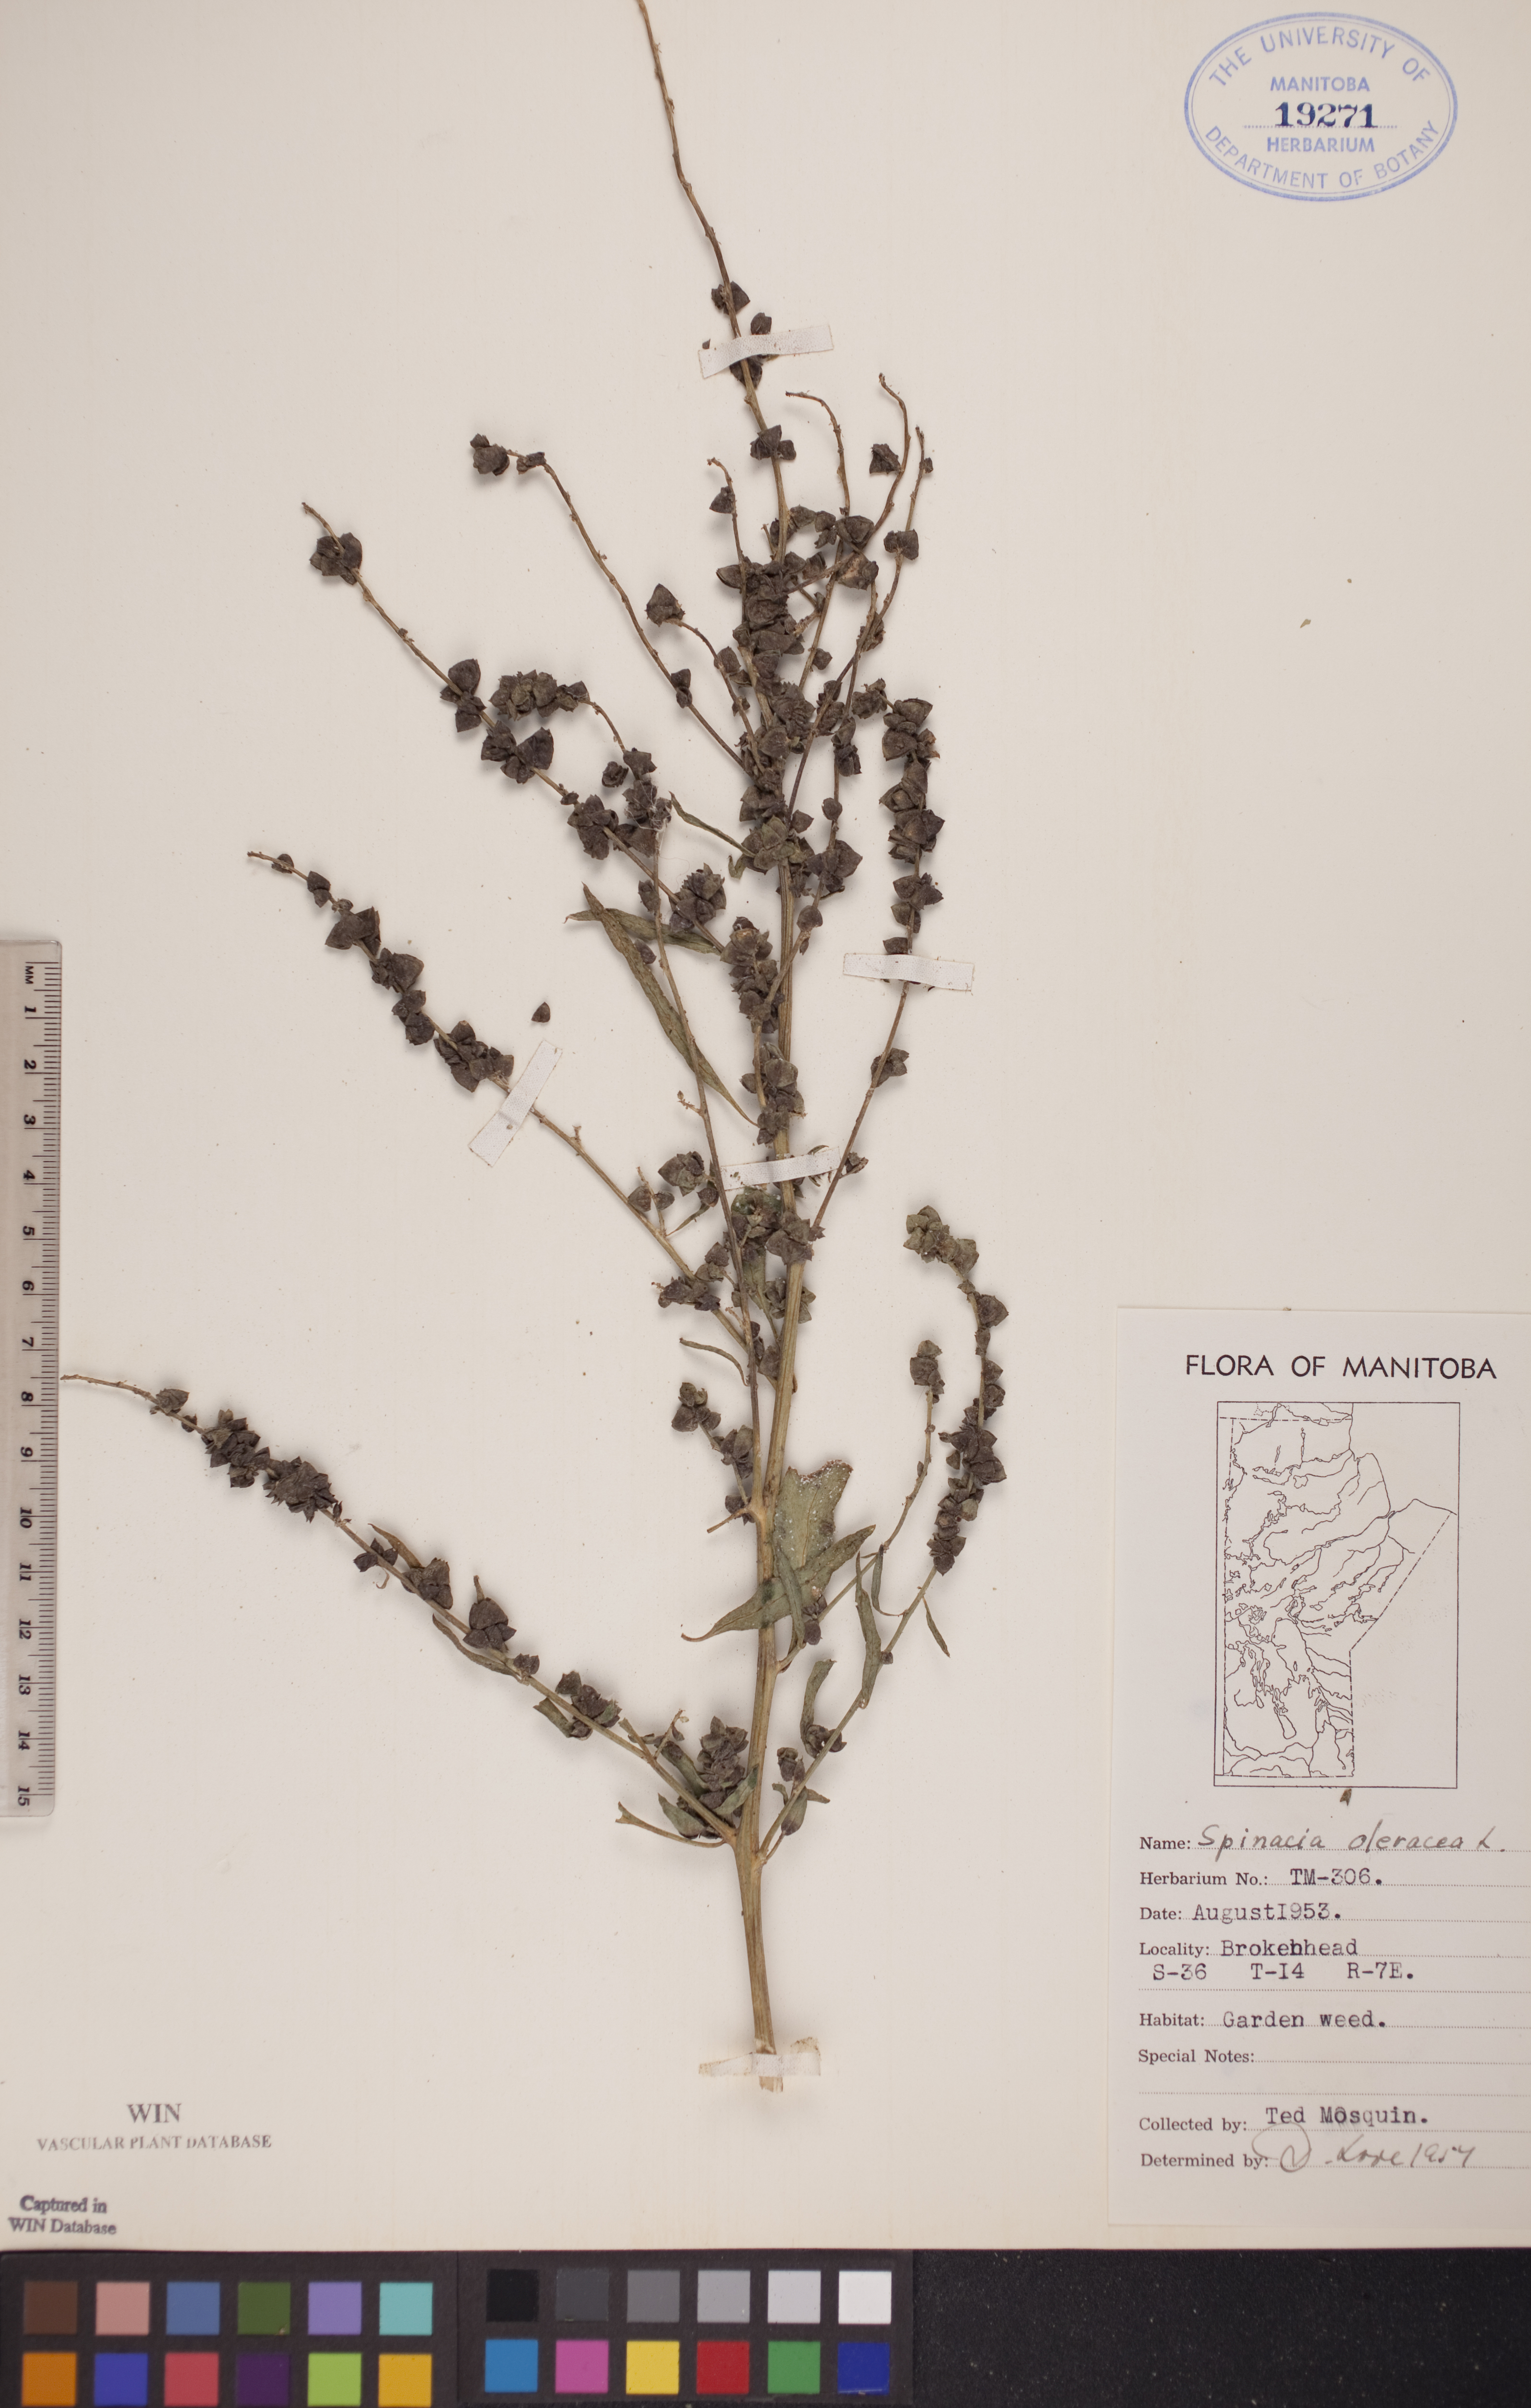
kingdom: Plantae
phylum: Tracheophyta
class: Magnoliopsida
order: Caryophyllales
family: Amaranthaceae
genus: Spinacia
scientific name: Spinacia oleracea
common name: Spinach
